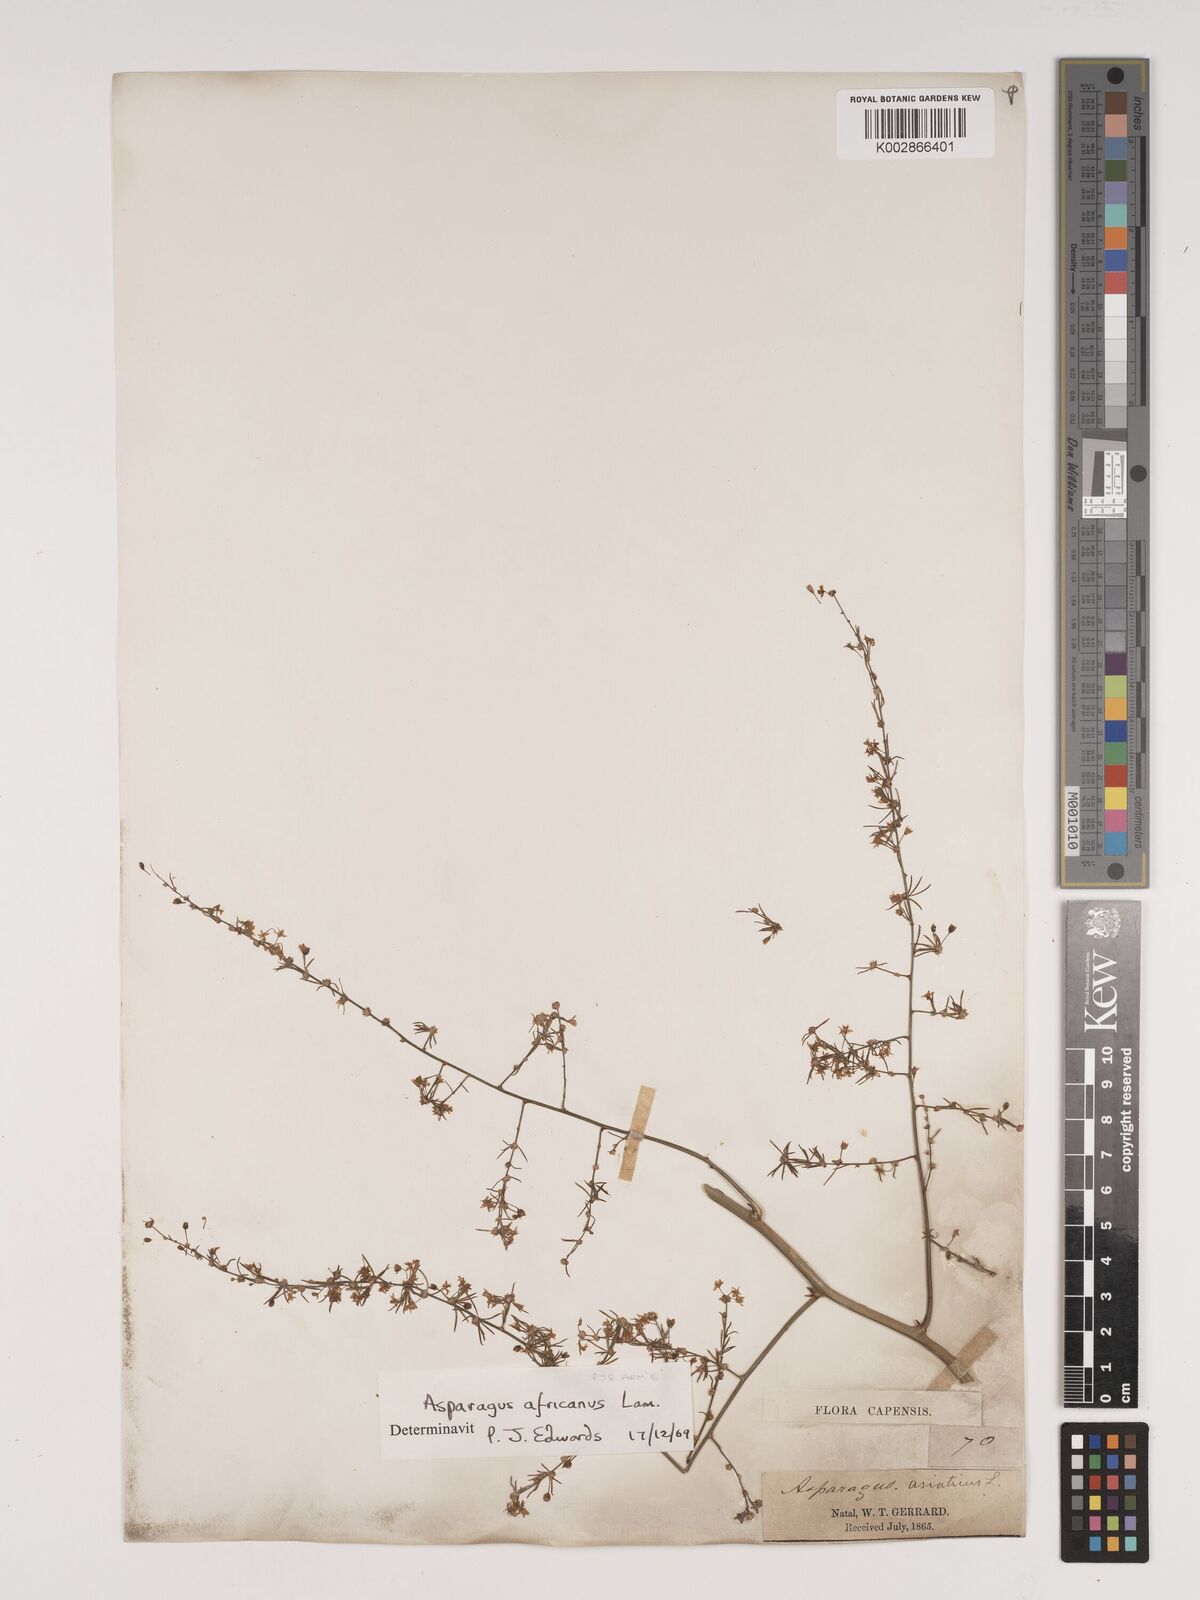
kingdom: Plantae
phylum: Tracheophyta
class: Liliopsida
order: Asparagales
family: Asparagaceae
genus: Asparagus
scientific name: Asparagus africanus
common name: Asparagus-fern
